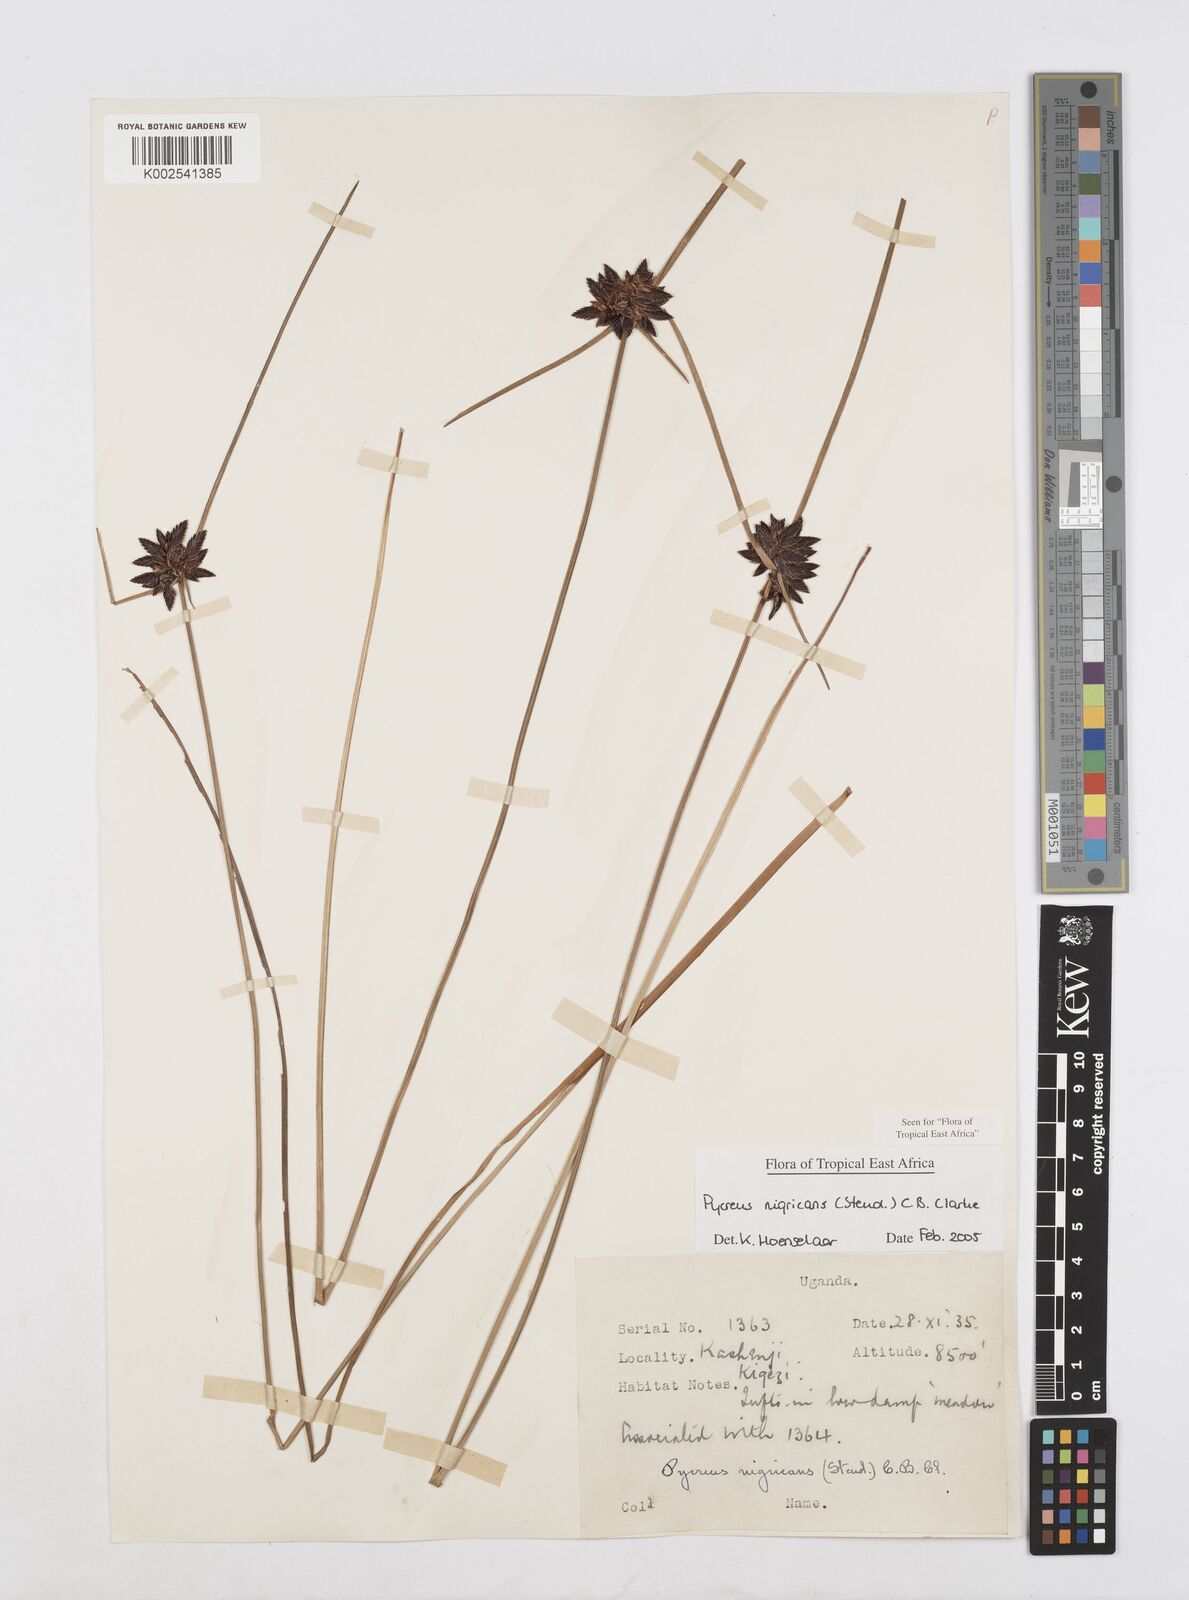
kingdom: Plantae
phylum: Tracheophyta
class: Liliopsida
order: Poales
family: Cyperaceae
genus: Cyperus
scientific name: Cyperus nigricans
